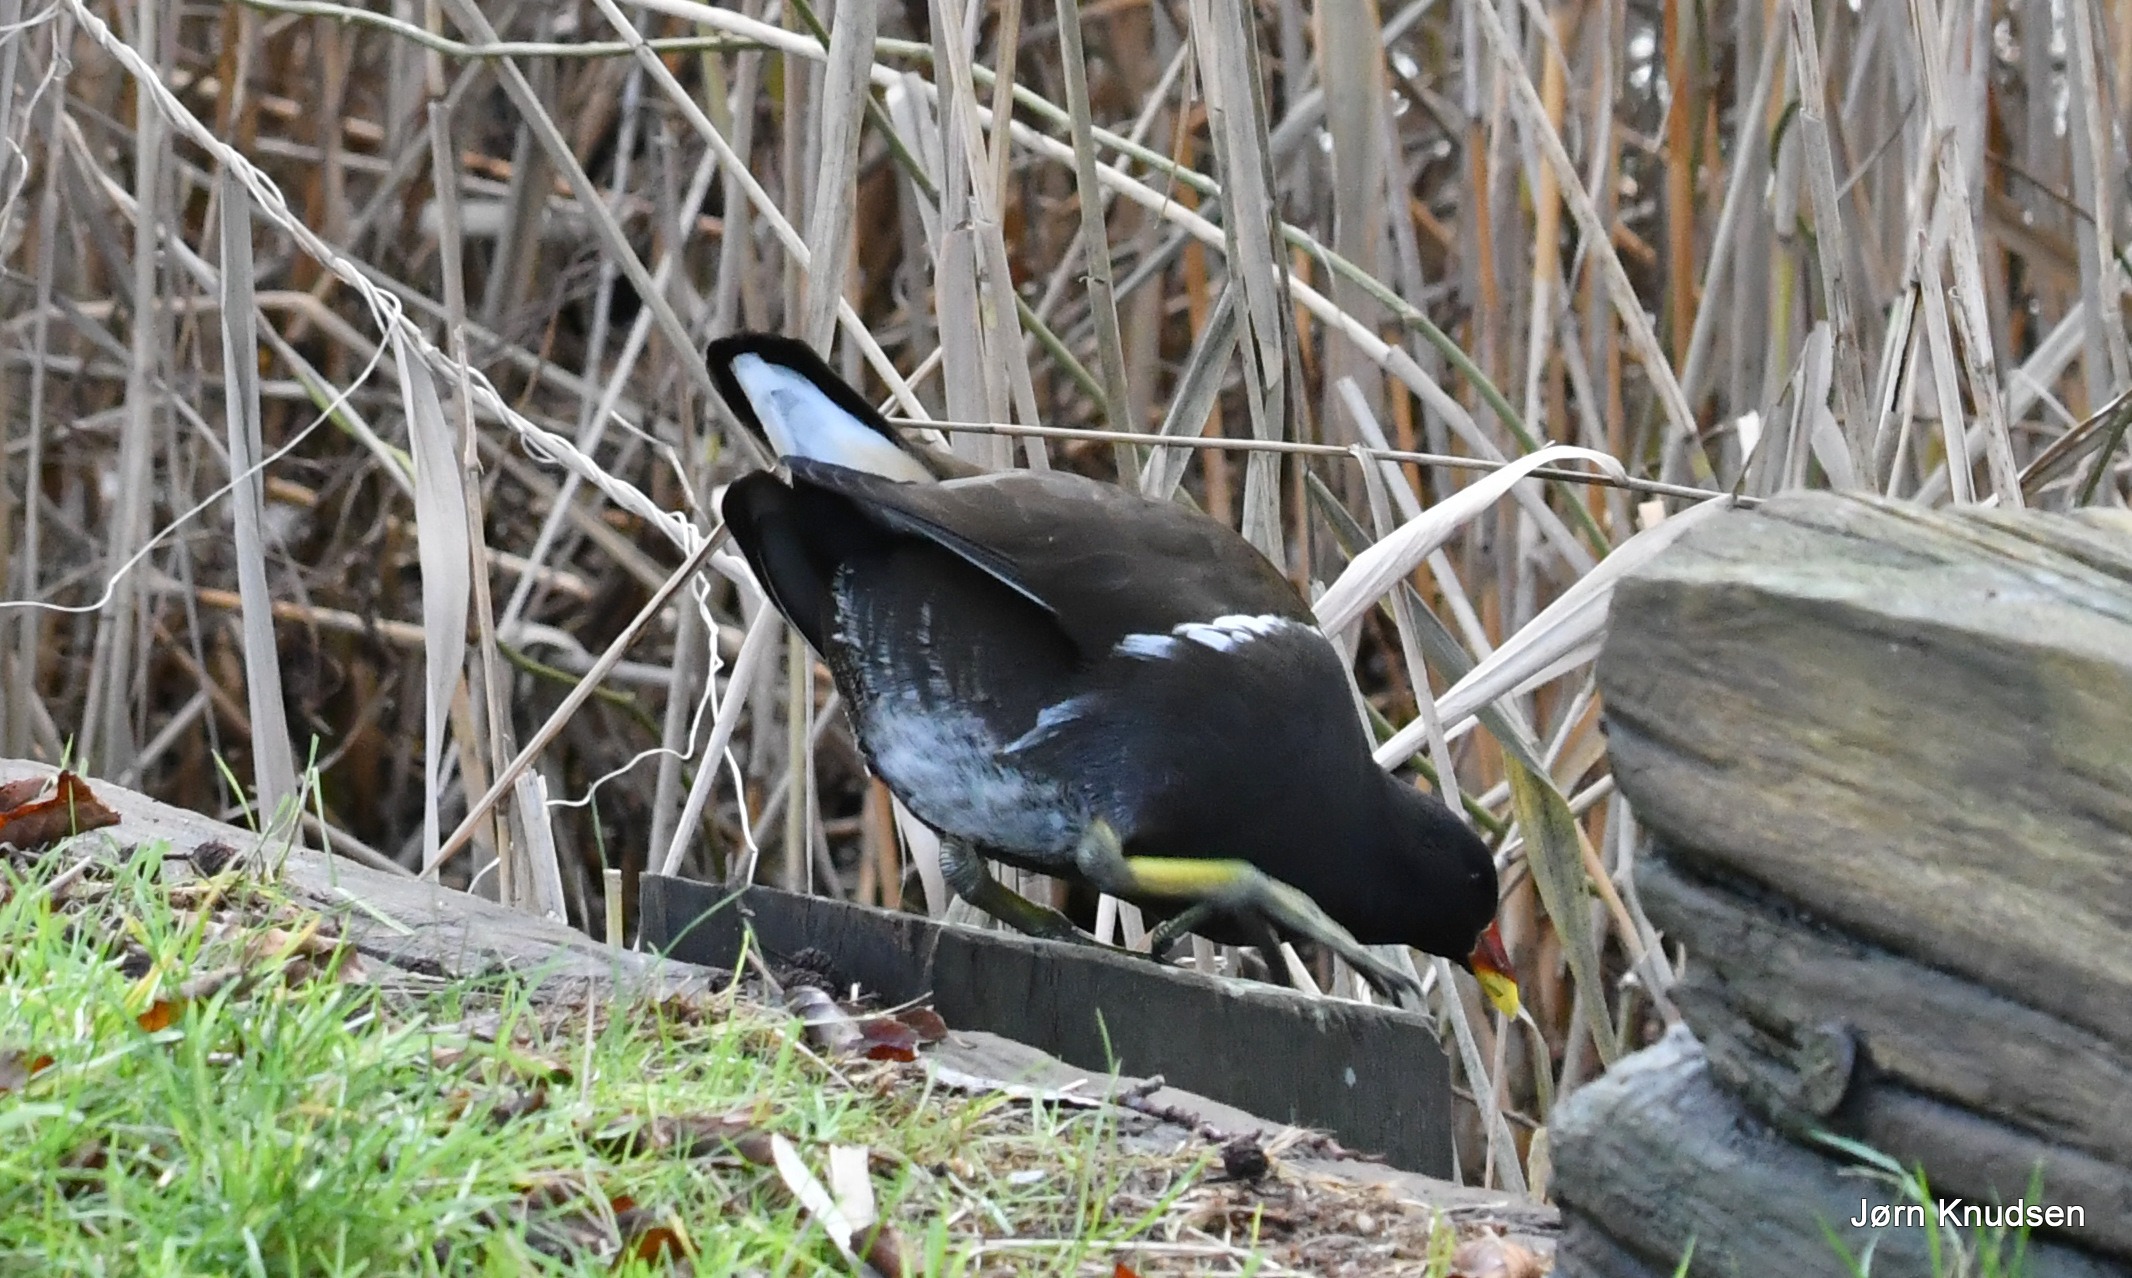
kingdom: Animalia
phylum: Chordata
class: Aves
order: Gruiformes
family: Rallidae
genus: Gallinula
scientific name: Gallinula chloropus
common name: Grønbenet rørhøne
